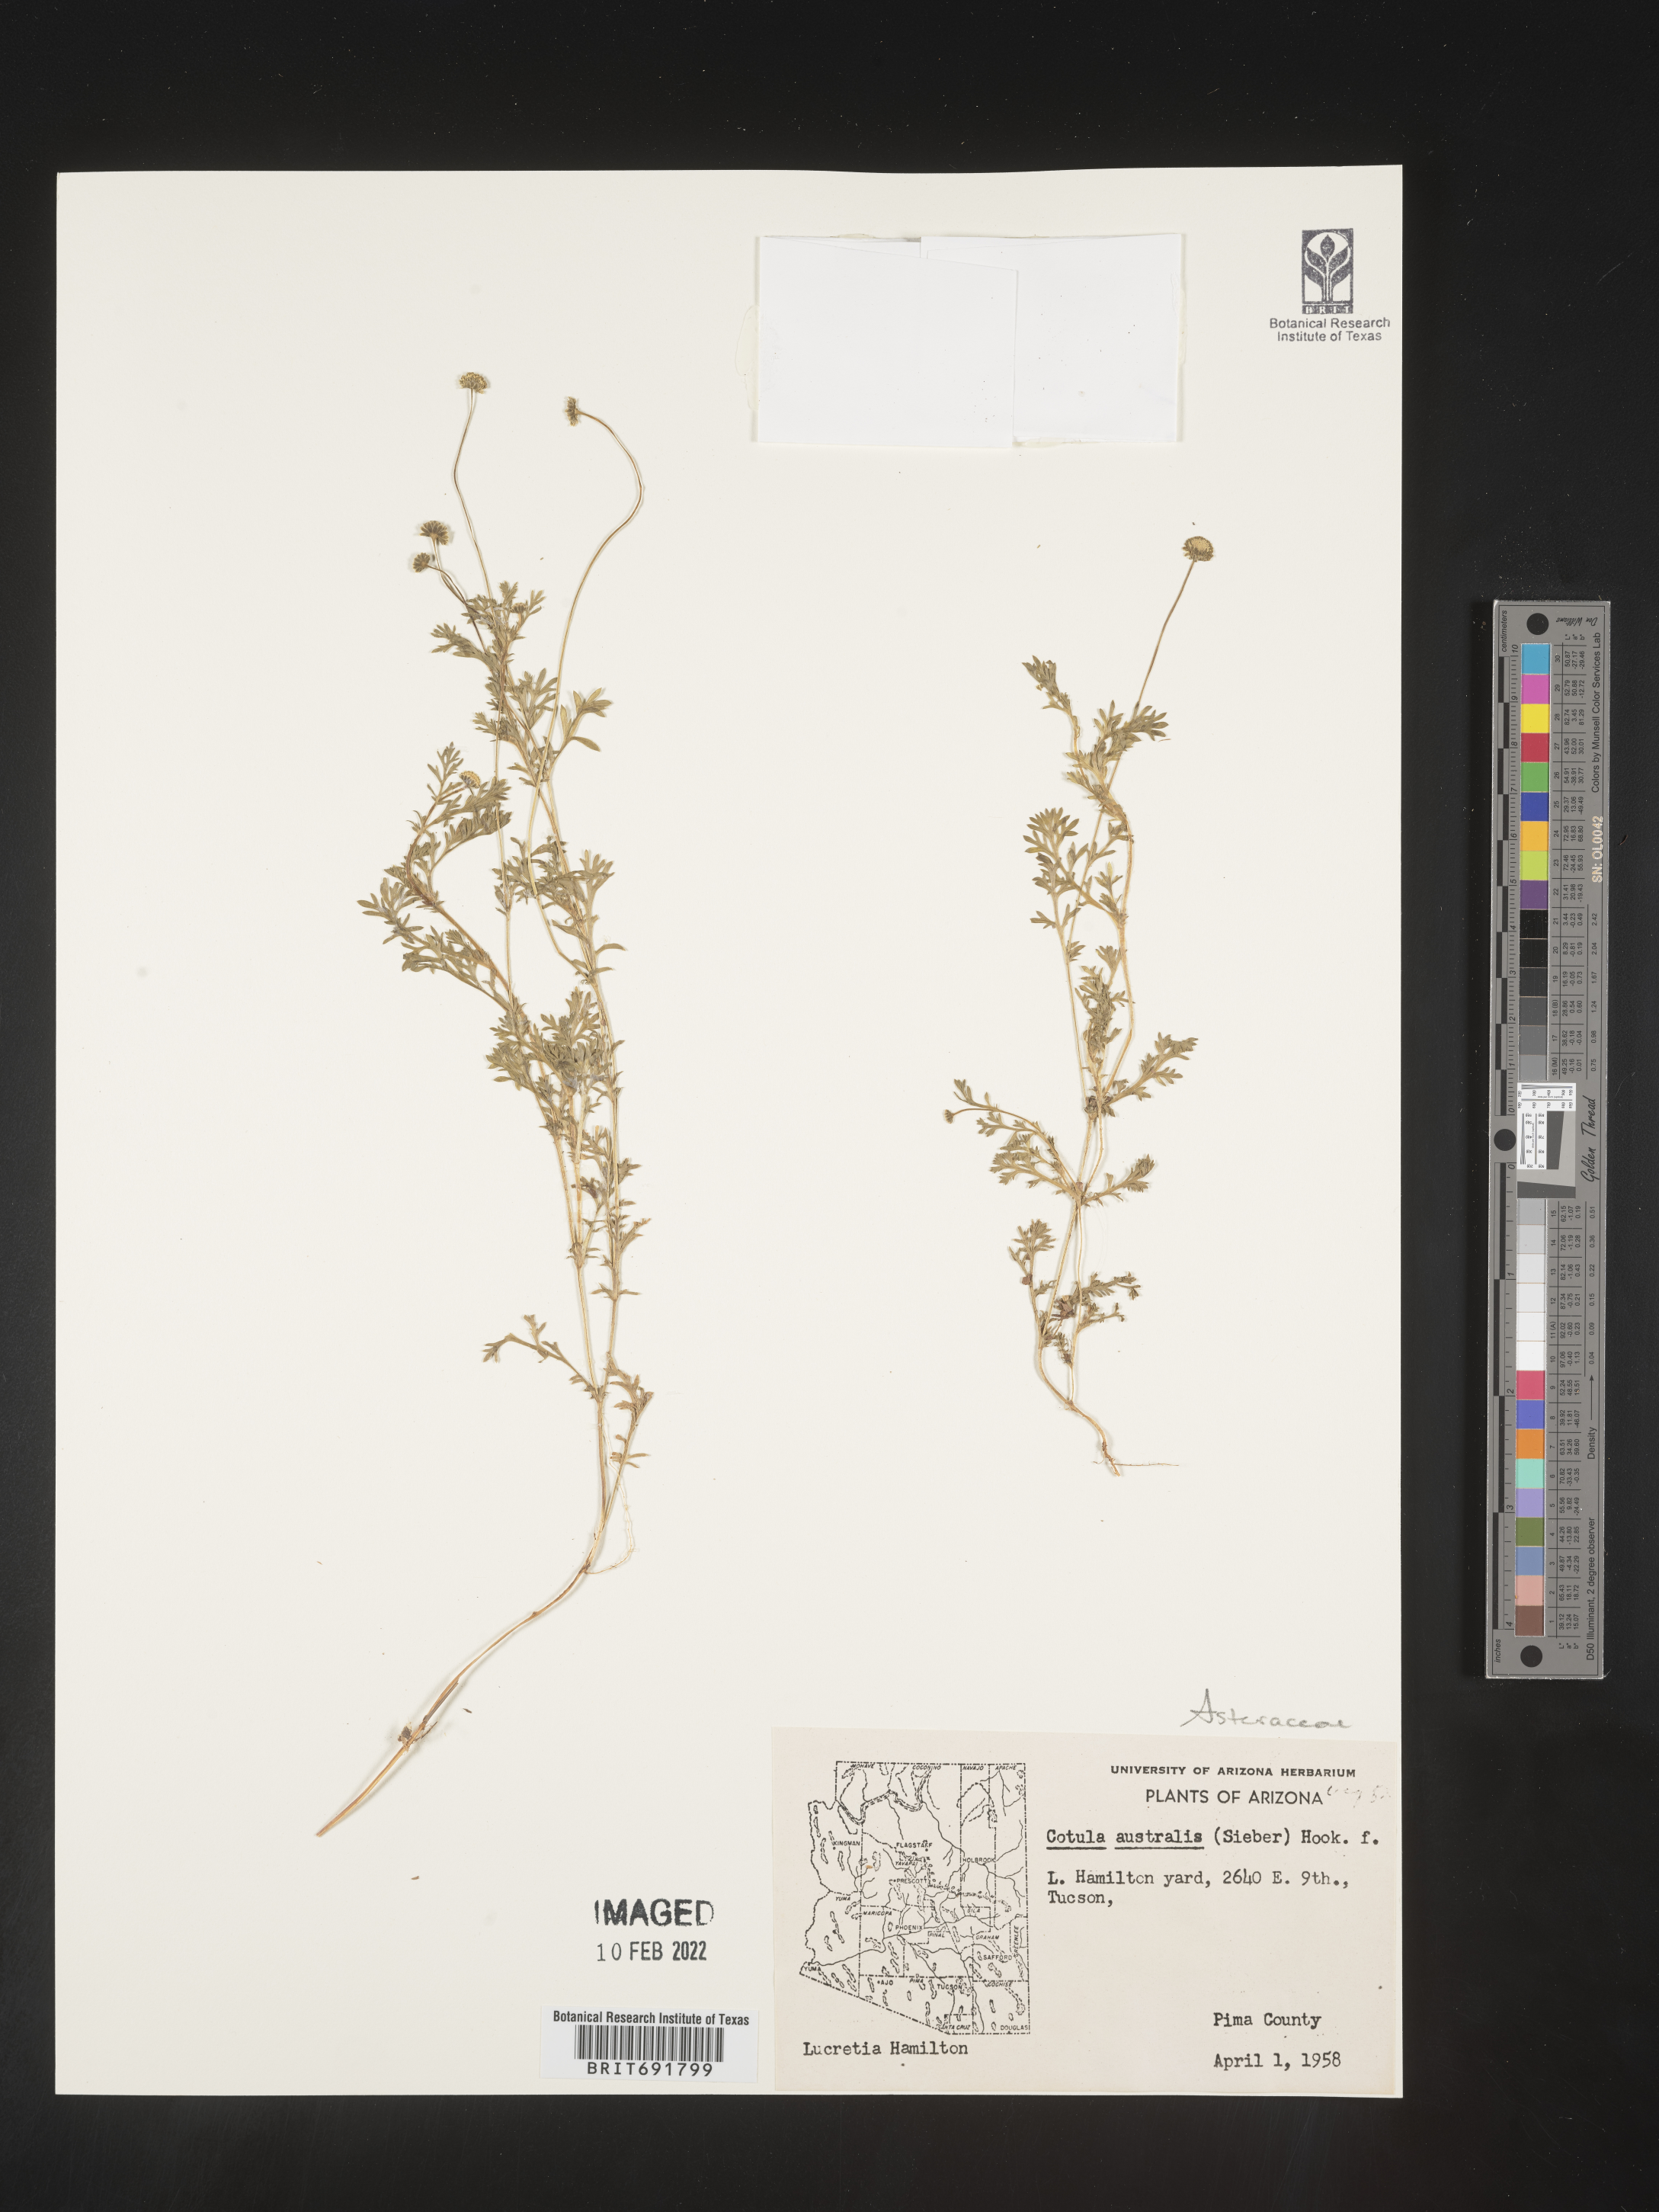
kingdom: Plantae
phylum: Tracheophyta
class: Magnoliopsida
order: Asterales
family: Asteraceae
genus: Cotula
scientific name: Cotula
